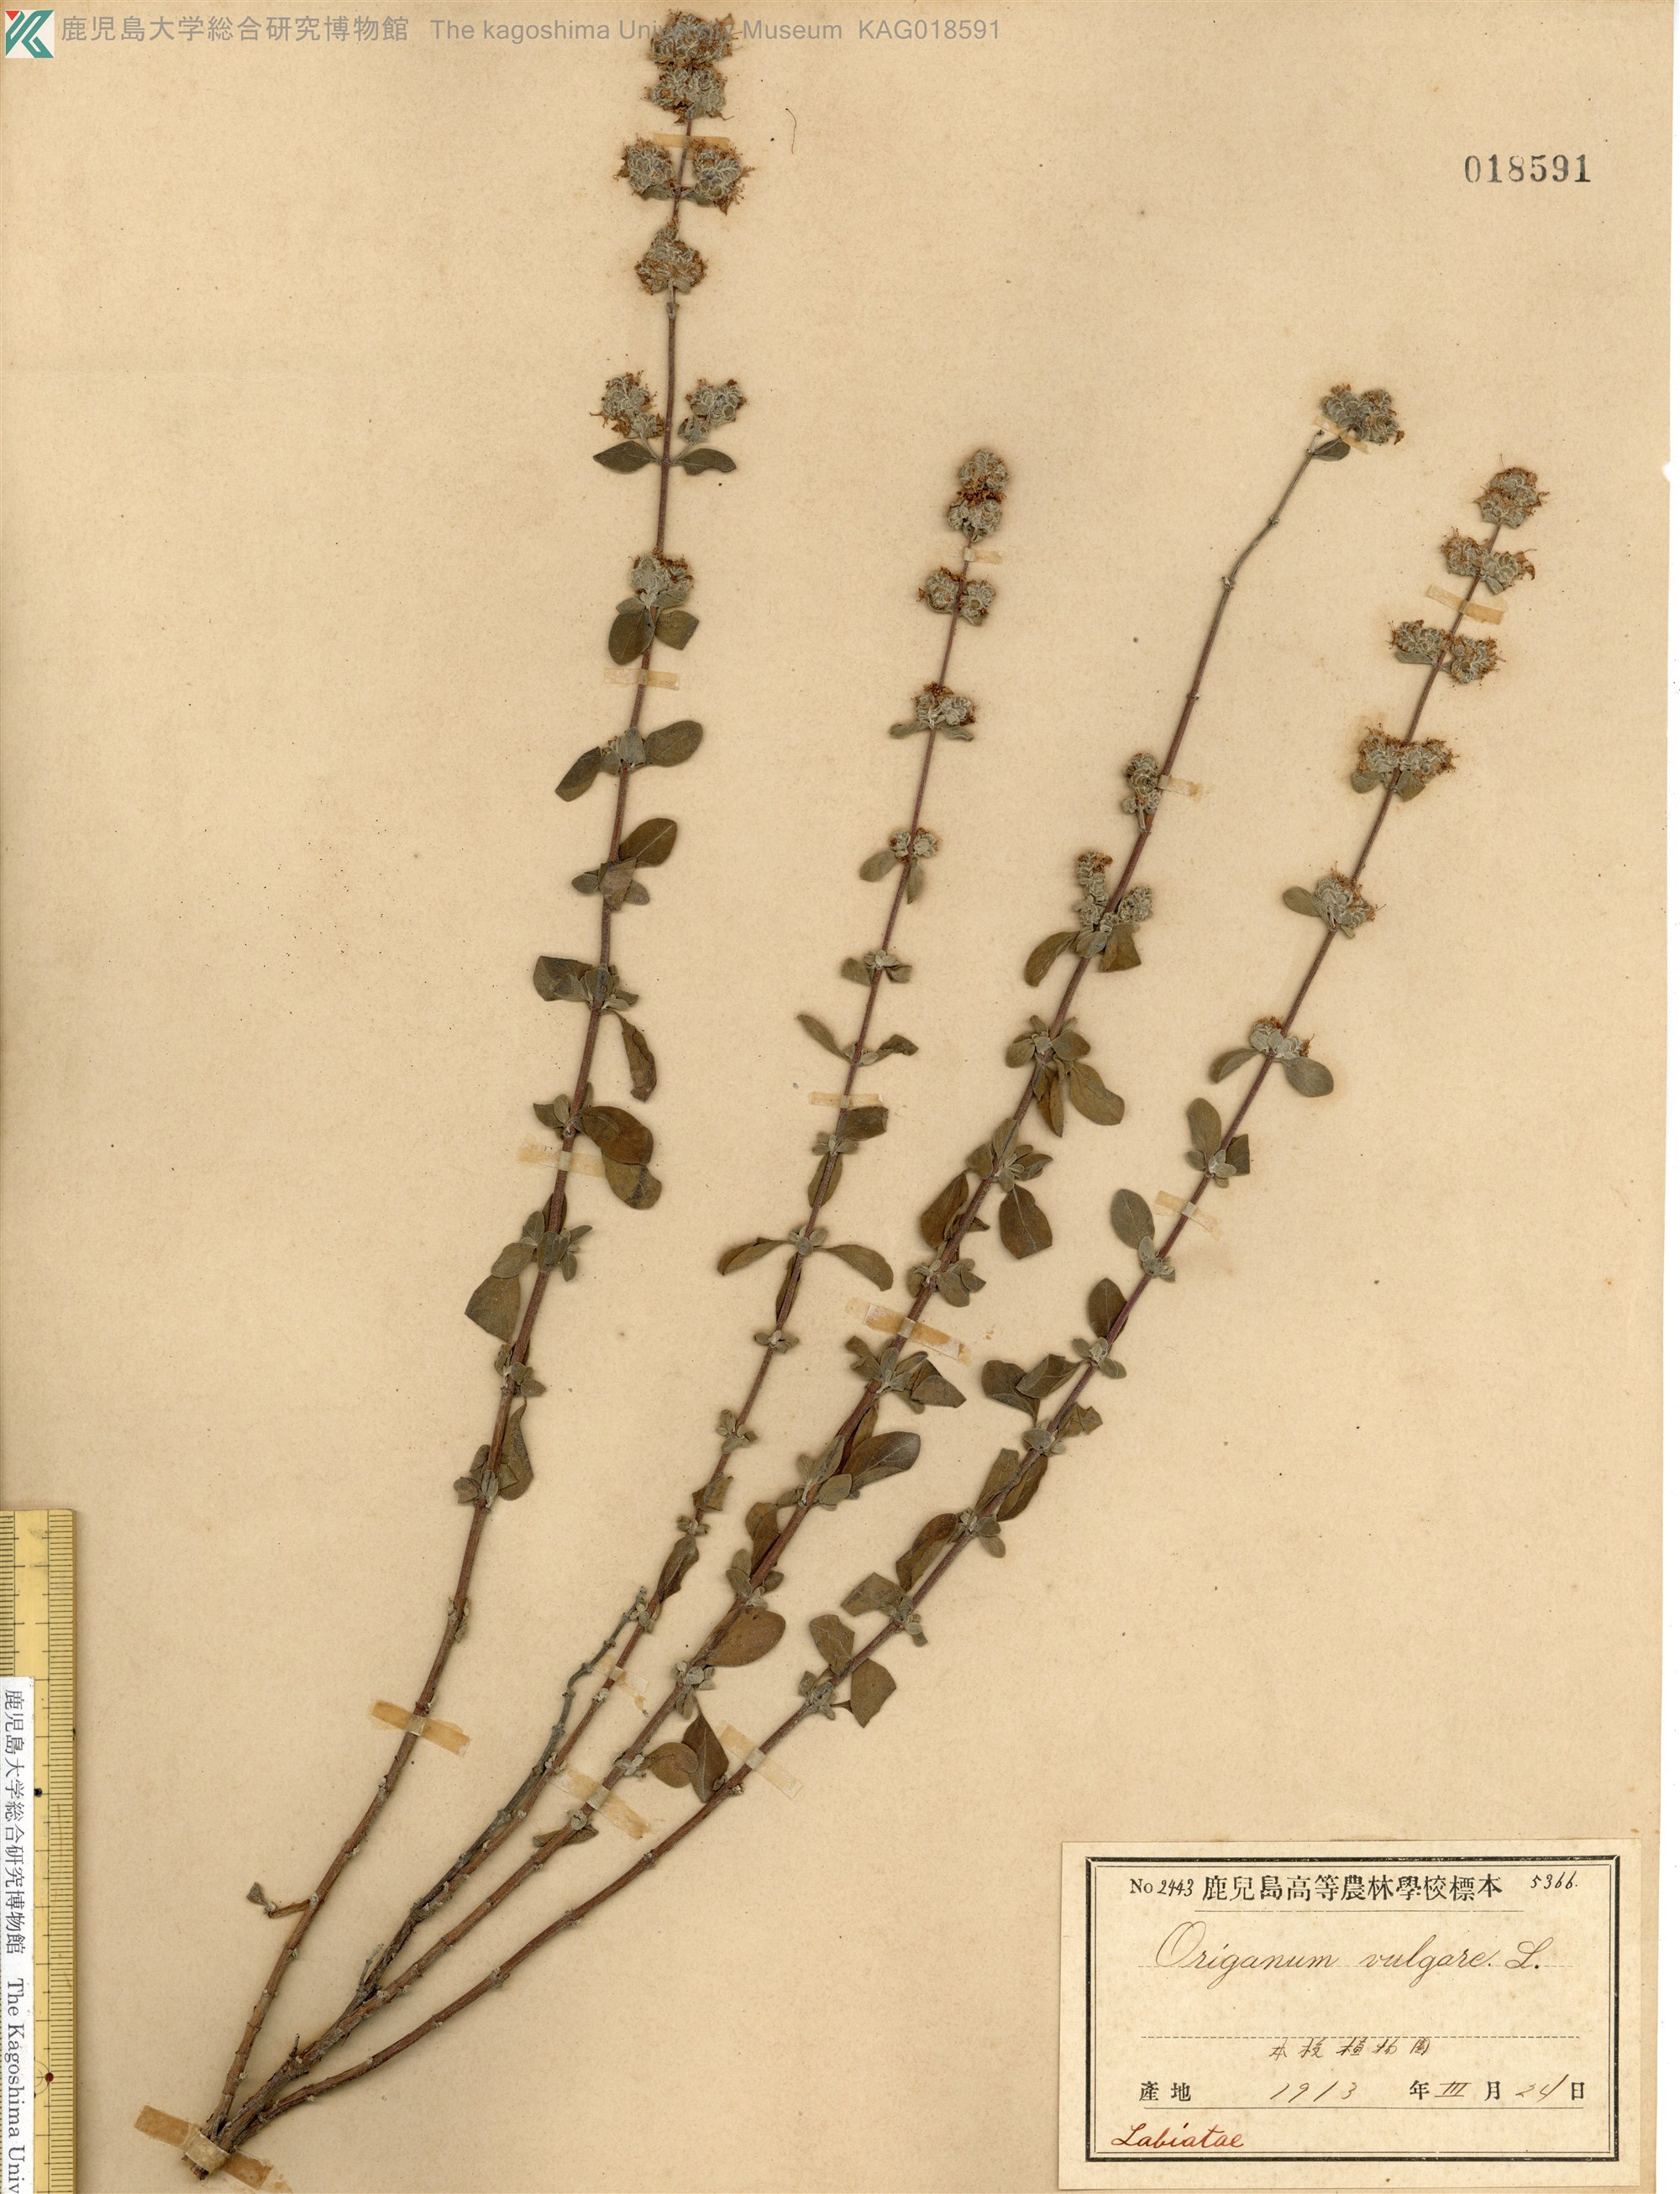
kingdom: Plantae
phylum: Tracheophyta
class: Magnoliopsida
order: Lamiales
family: Lamiaceae
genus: Origanum
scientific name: Origanum vulgare
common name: Wild marjoram
